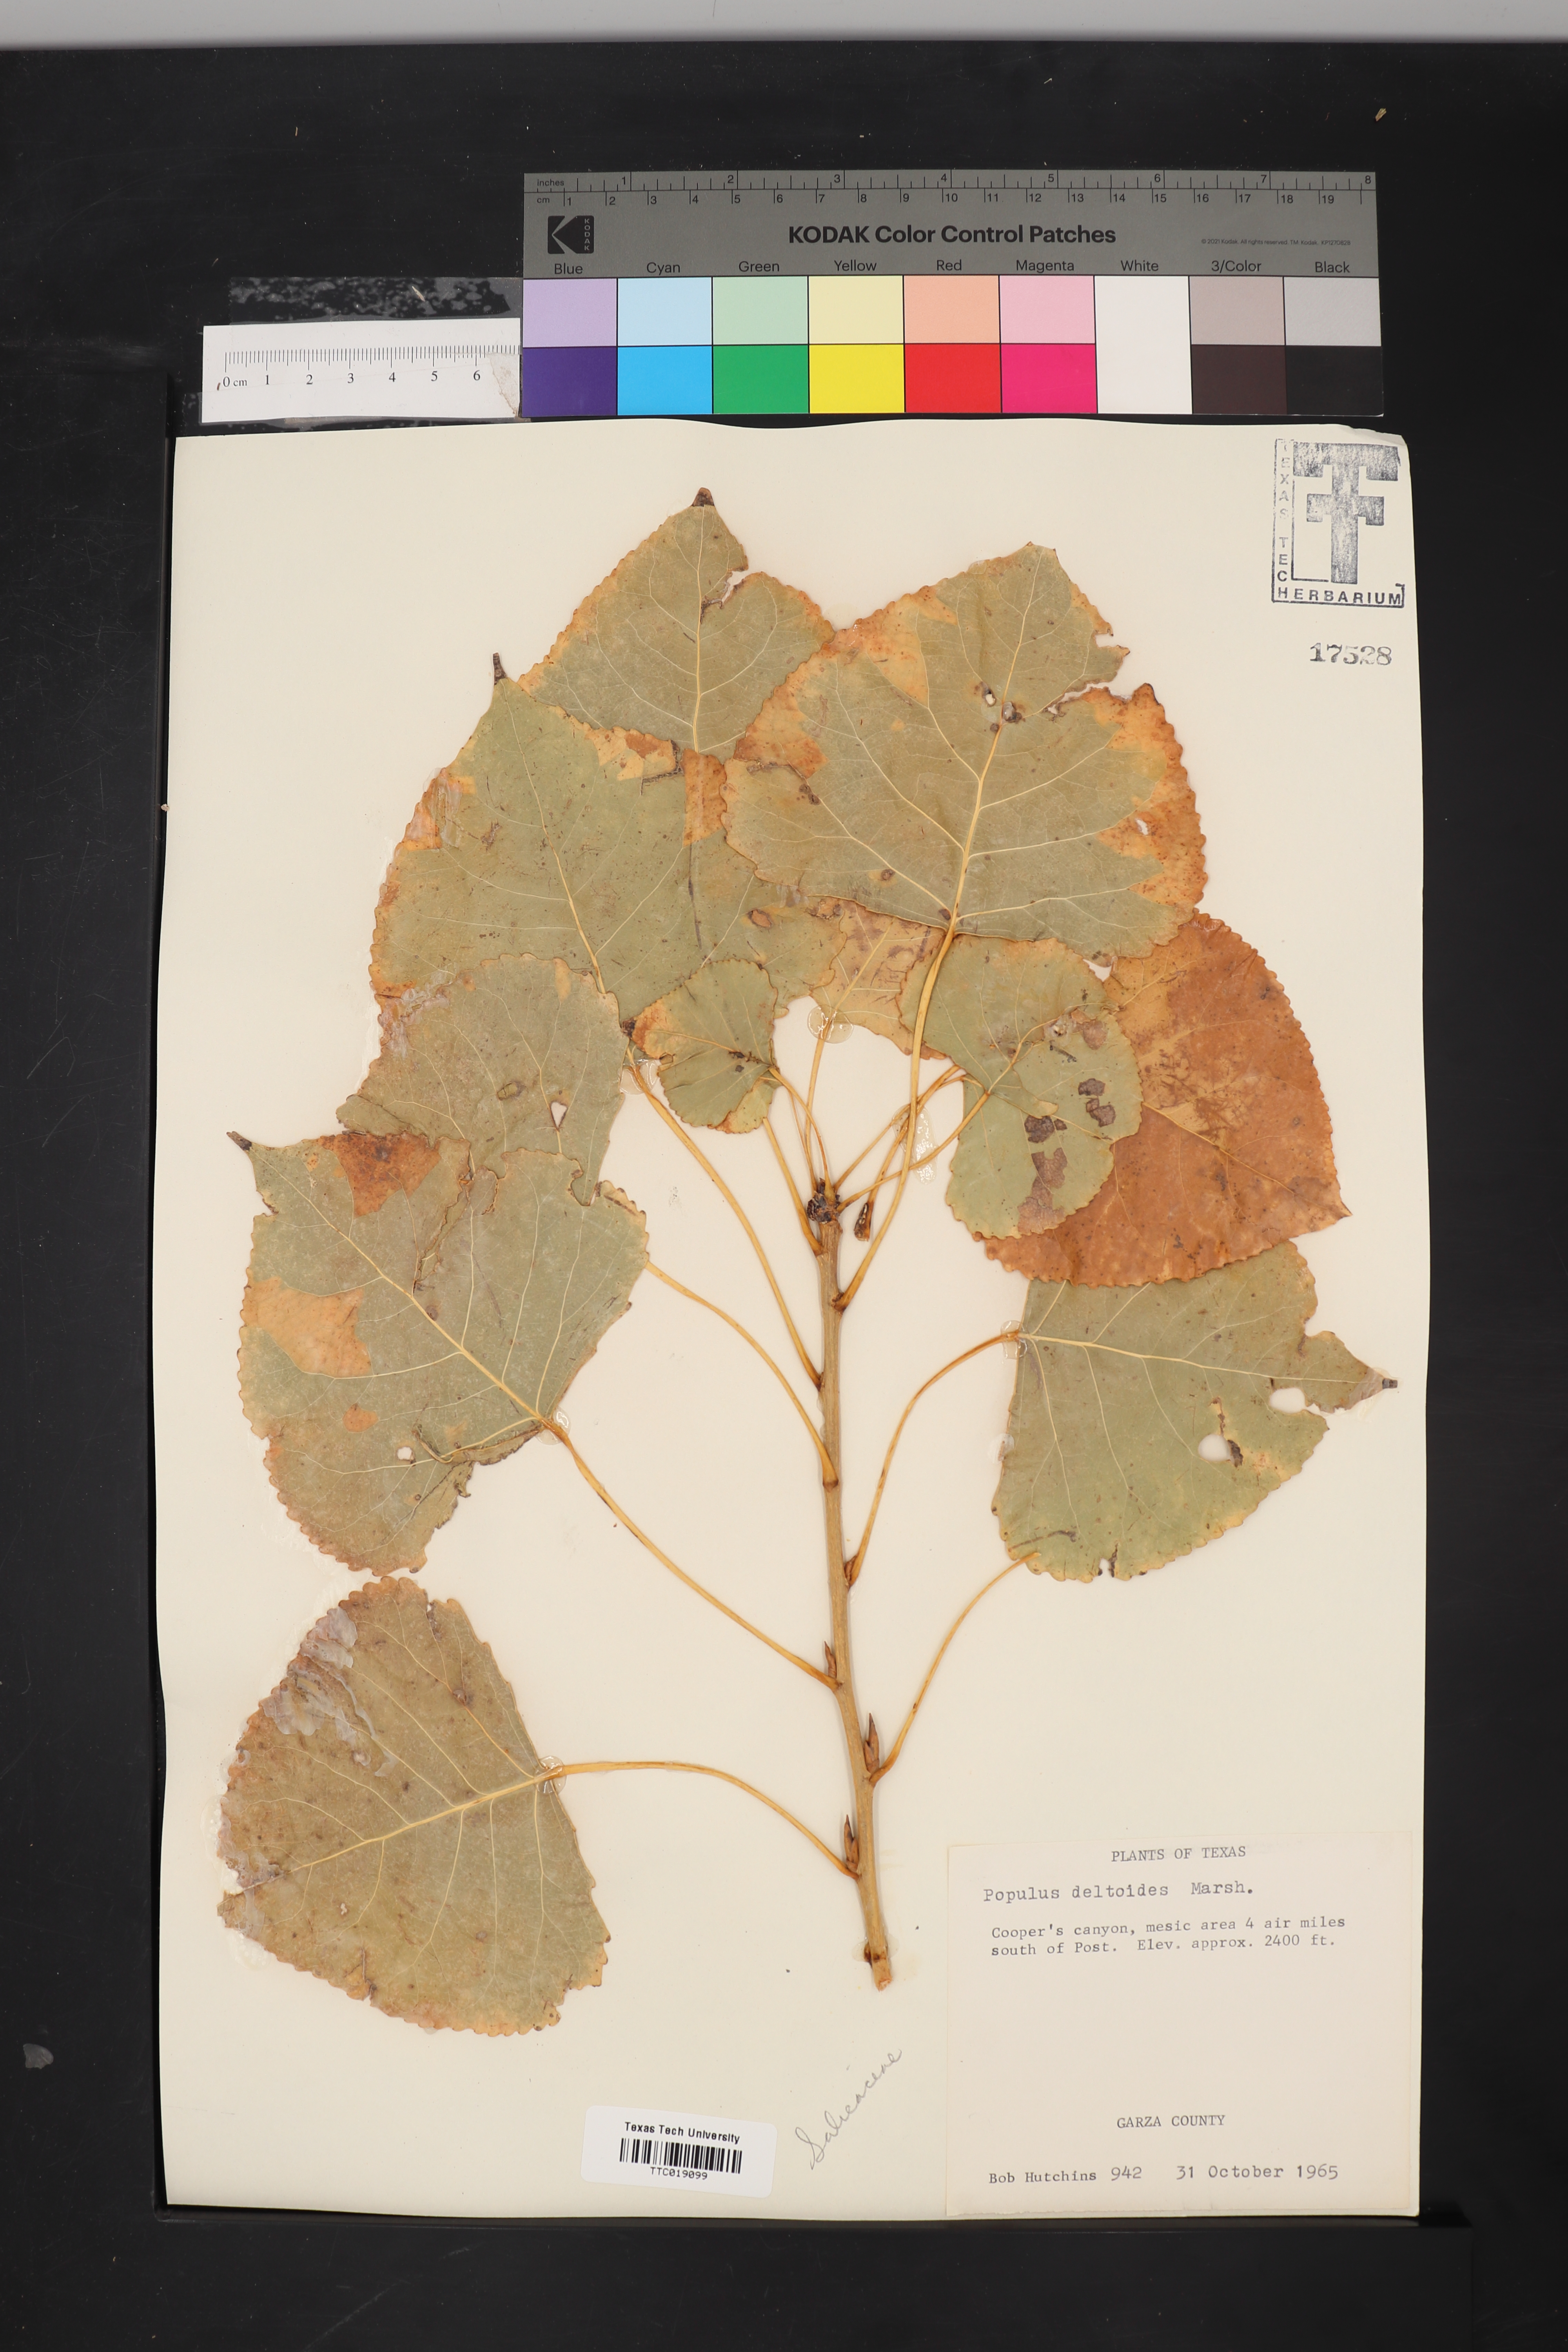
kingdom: Plantae
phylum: Tracheophyta
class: Magnoliopsida
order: Malpighiales
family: Salicaceae
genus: Populus
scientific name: Populus deltoides
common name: Eastern cottonwood
